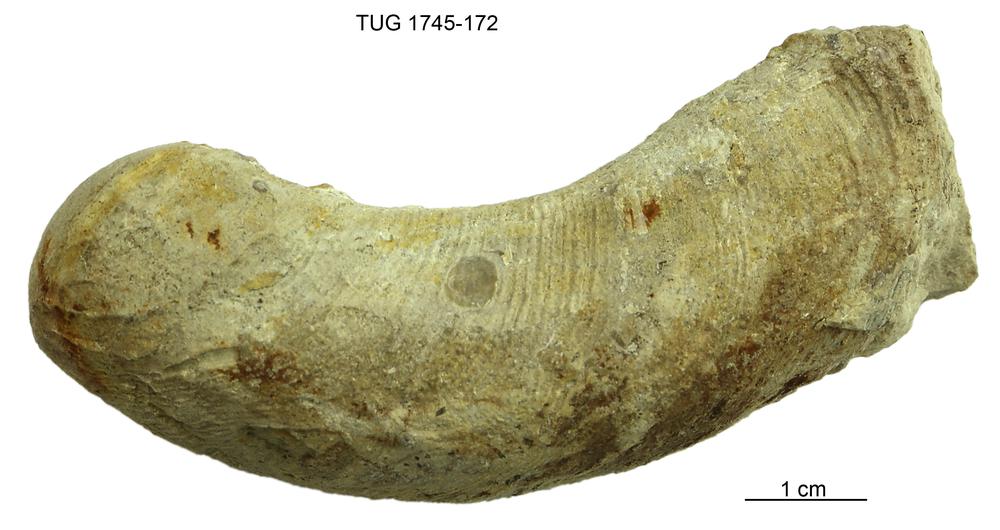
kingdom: Animalia
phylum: Mollusca
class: Cephalopoda
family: Trocholitidae
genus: Schroederoceras
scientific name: Schroederoceras
